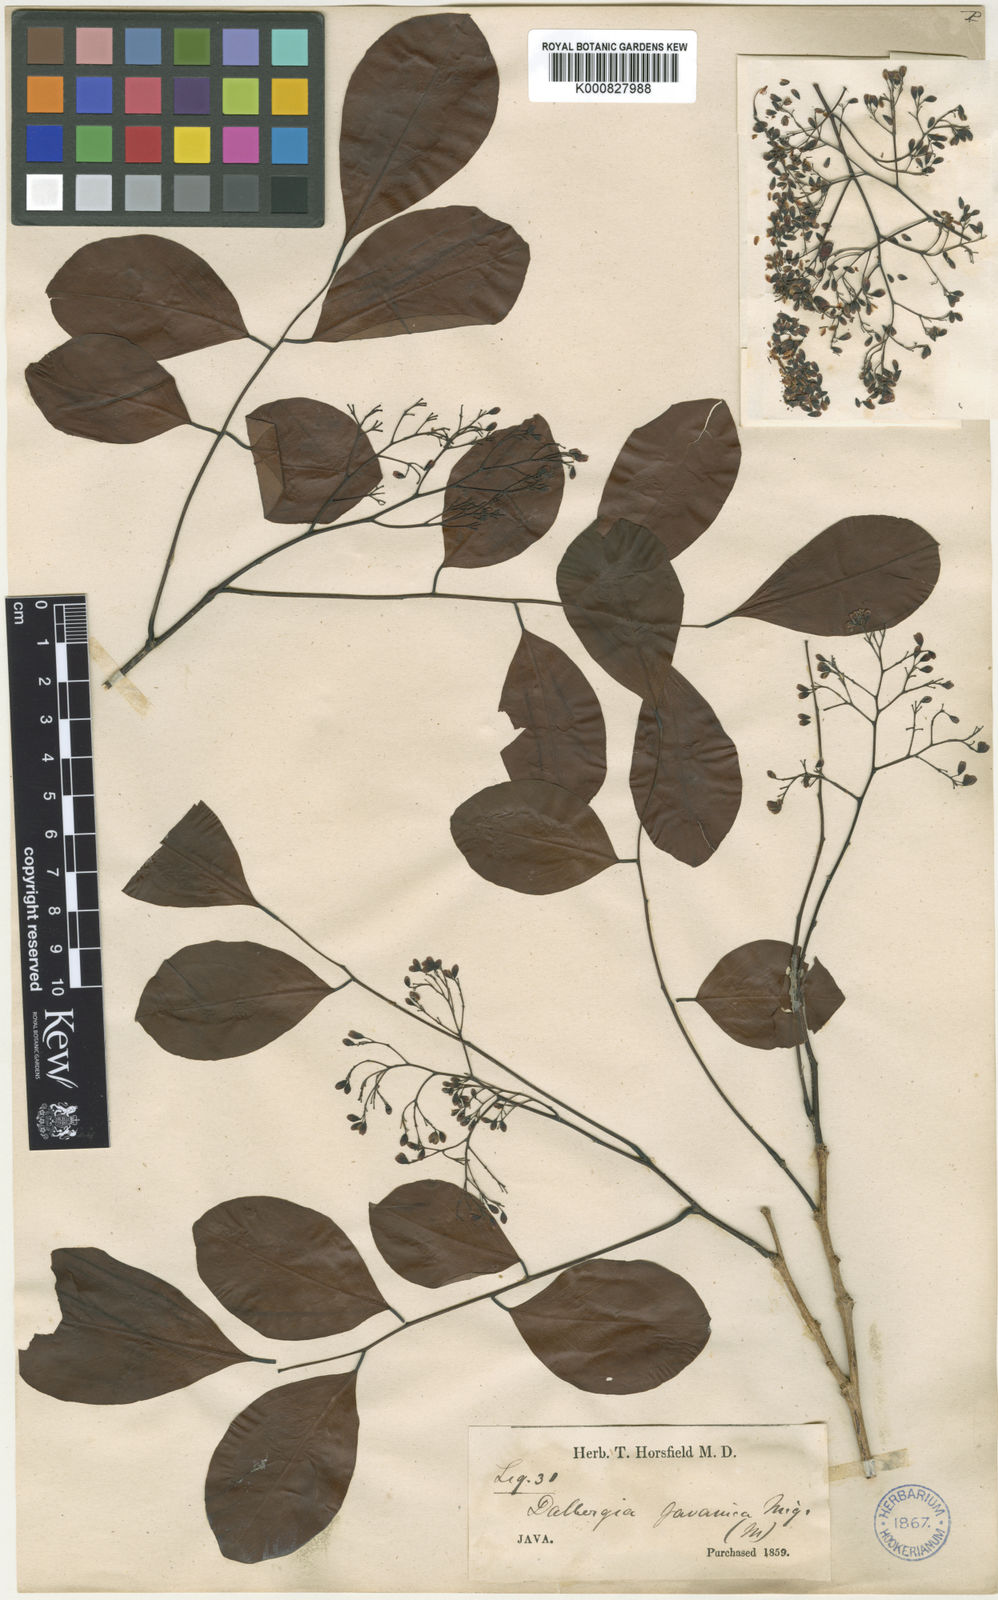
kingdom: Plantae
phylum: Tracheophyta
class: Magnoliopsida
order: Fabales
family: Fabaceae
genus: Dalbergia
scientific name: Dalbergia latifolia
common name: Bombay blackwood
